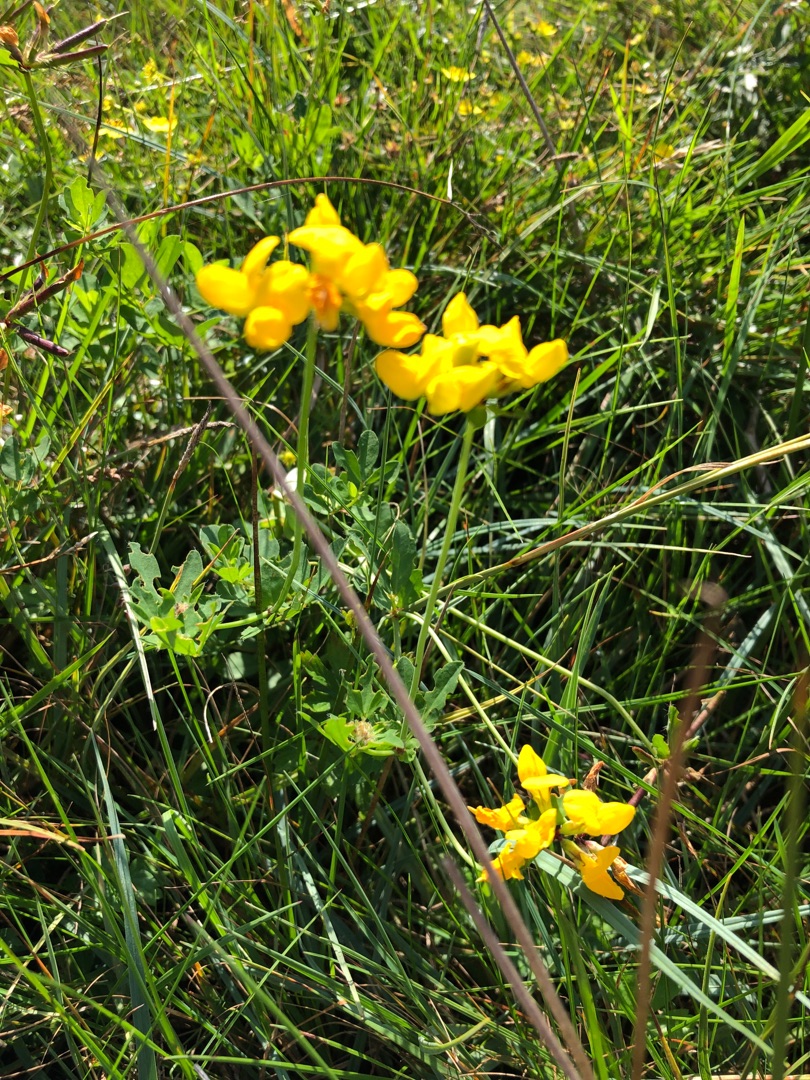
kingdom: Plantae
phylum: Tracheophyta
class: Magnoliopsida
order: Fabales
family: Fabaceae
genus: Lotus
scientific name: Lotus
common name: Kællingetandslægten
